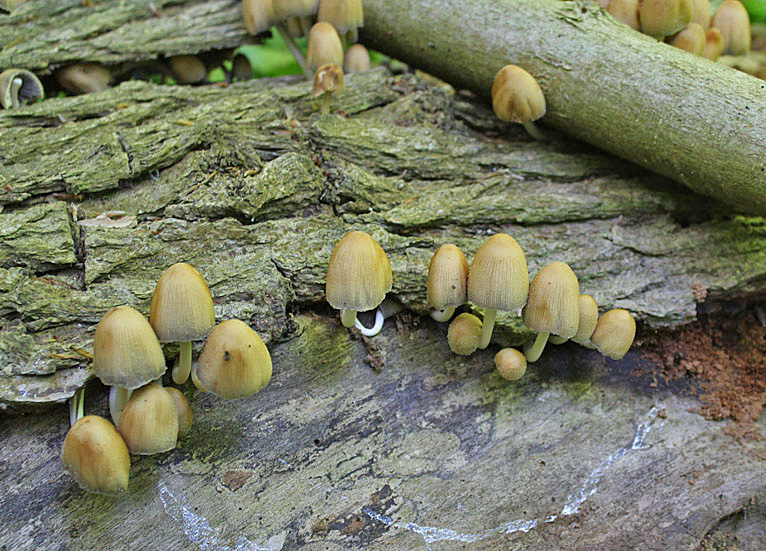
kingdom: Fungi
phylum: Basidiomycota
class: Agaricomycetes
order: Agaricales
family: Psathyrellaceae
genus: Coprinellus
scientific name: Coprinellus micaceus
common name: glimmer-blækhat
